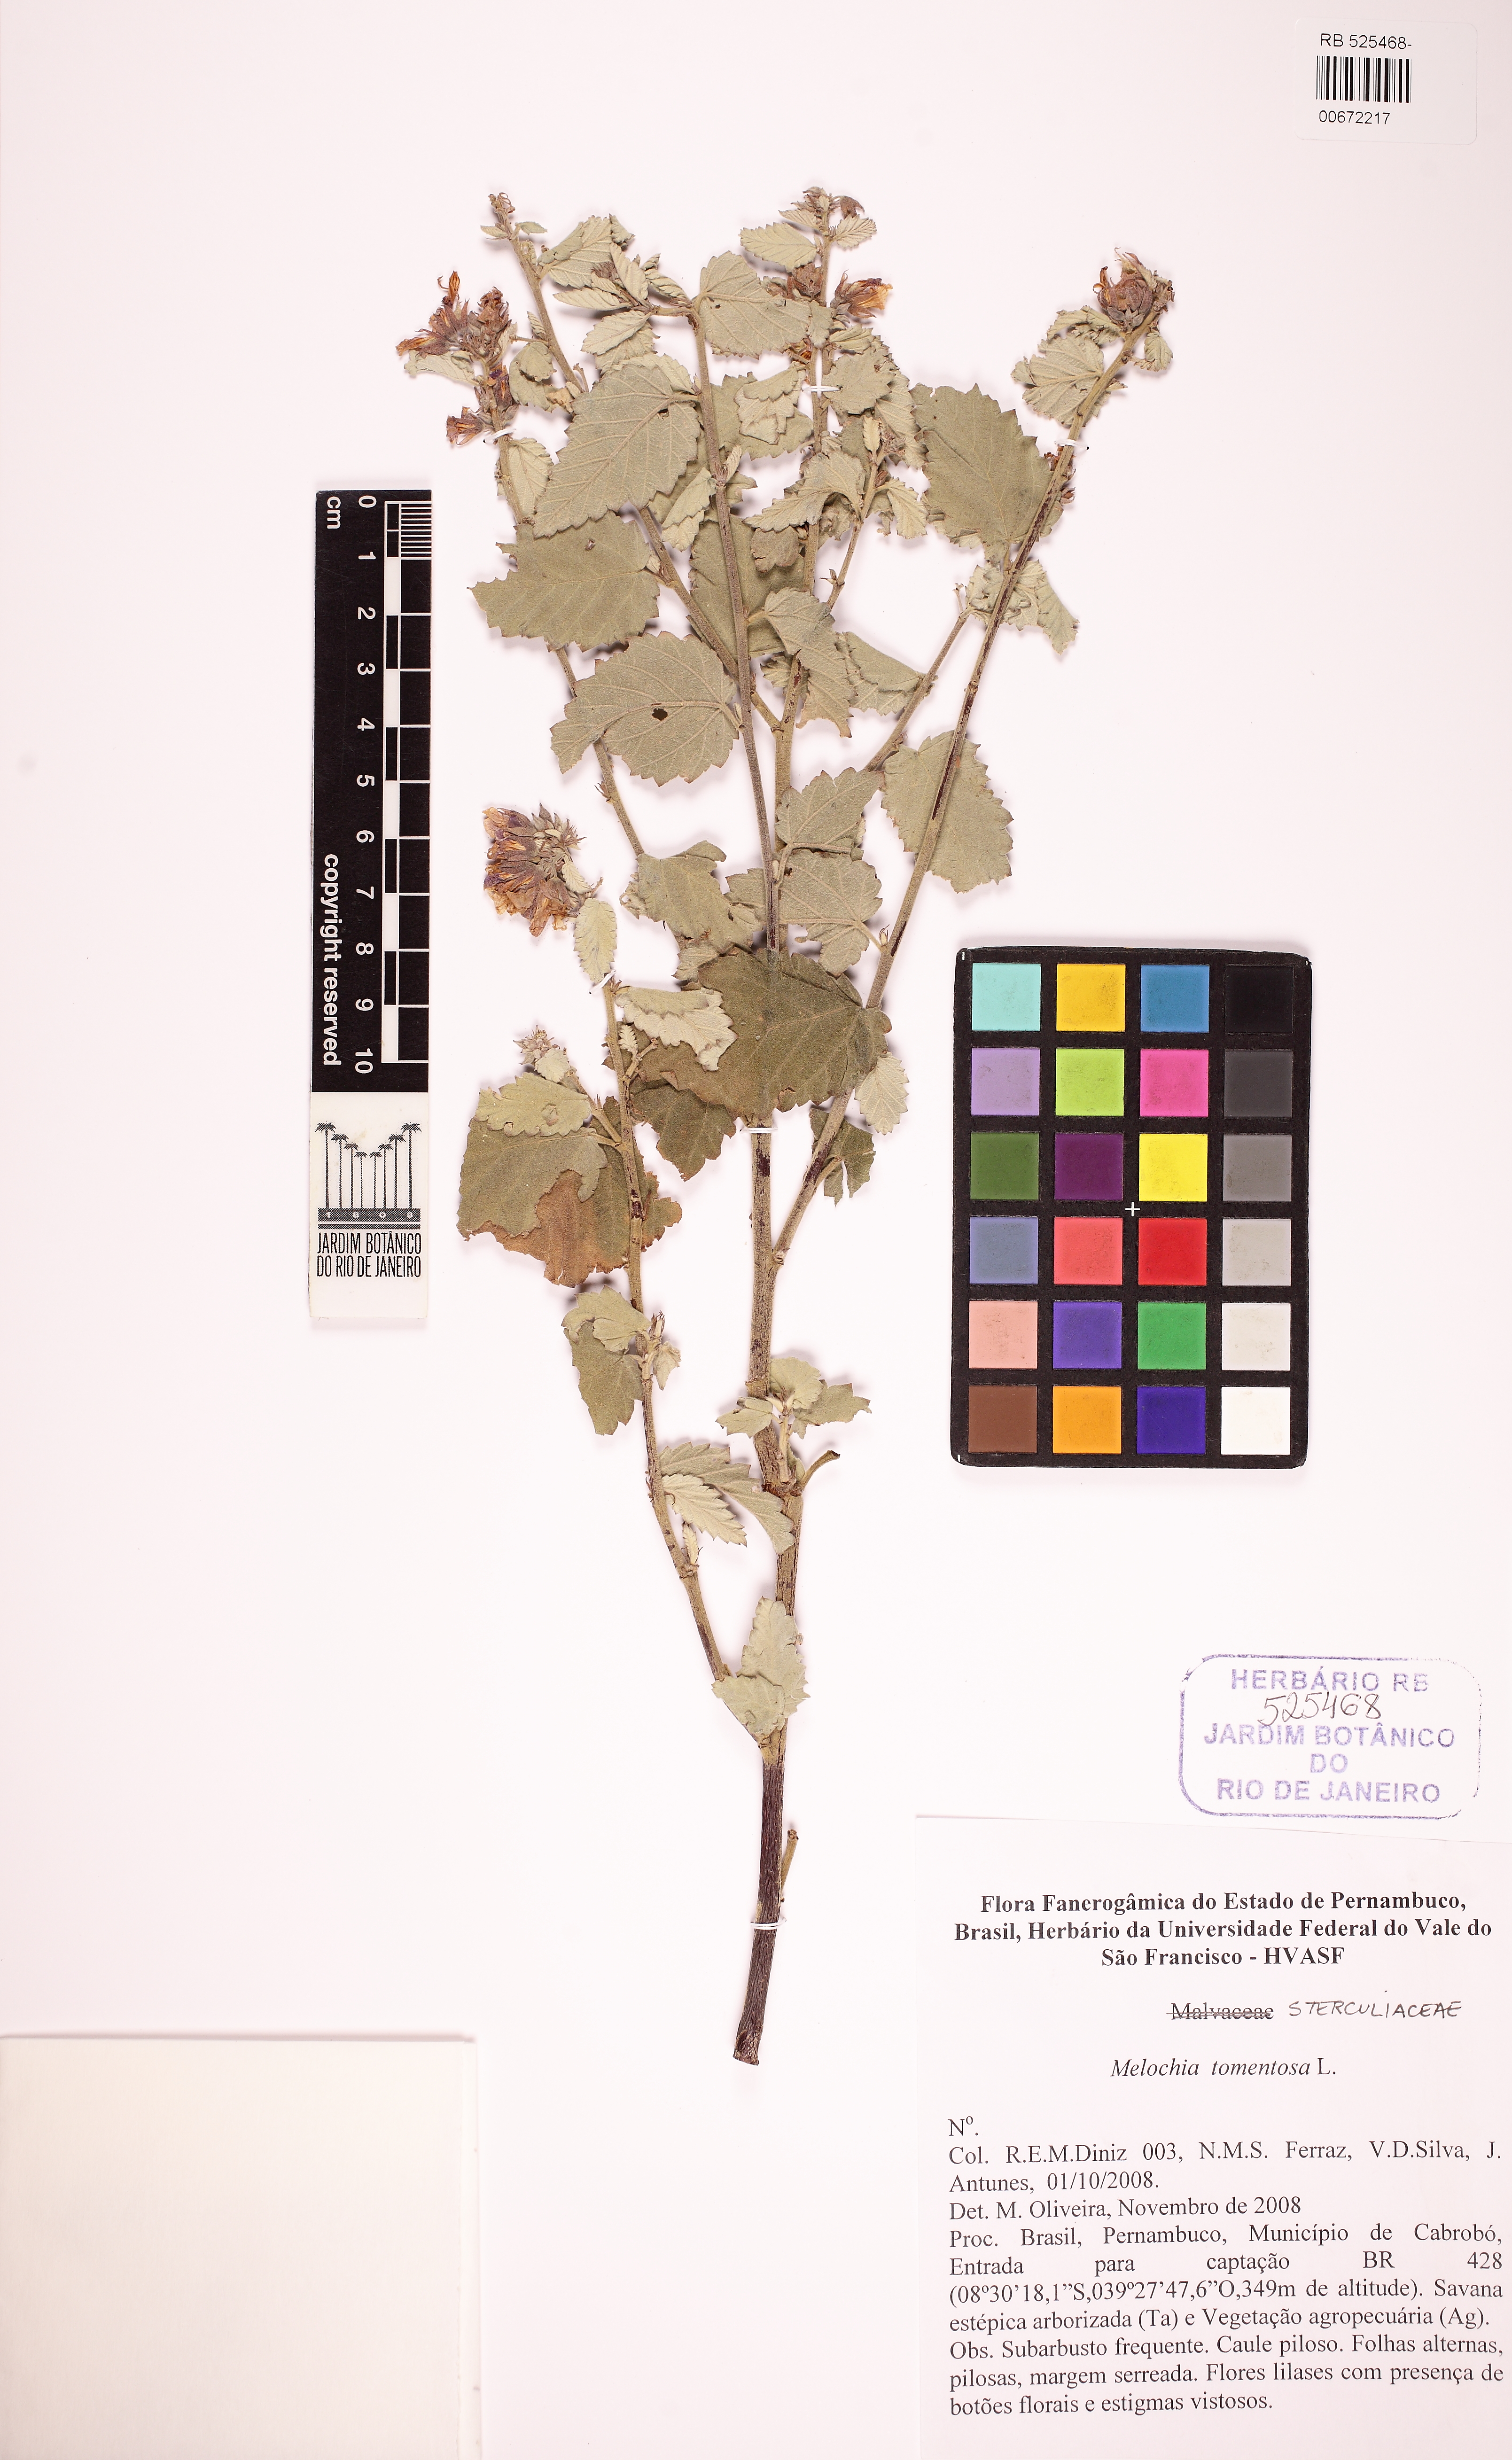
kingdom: Plantae
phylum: Tracheophyta
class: Magnoliopsida
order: Malvales
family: Malvaceae
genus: Melochia
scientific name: Melochia tomentosa
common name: Black torch
